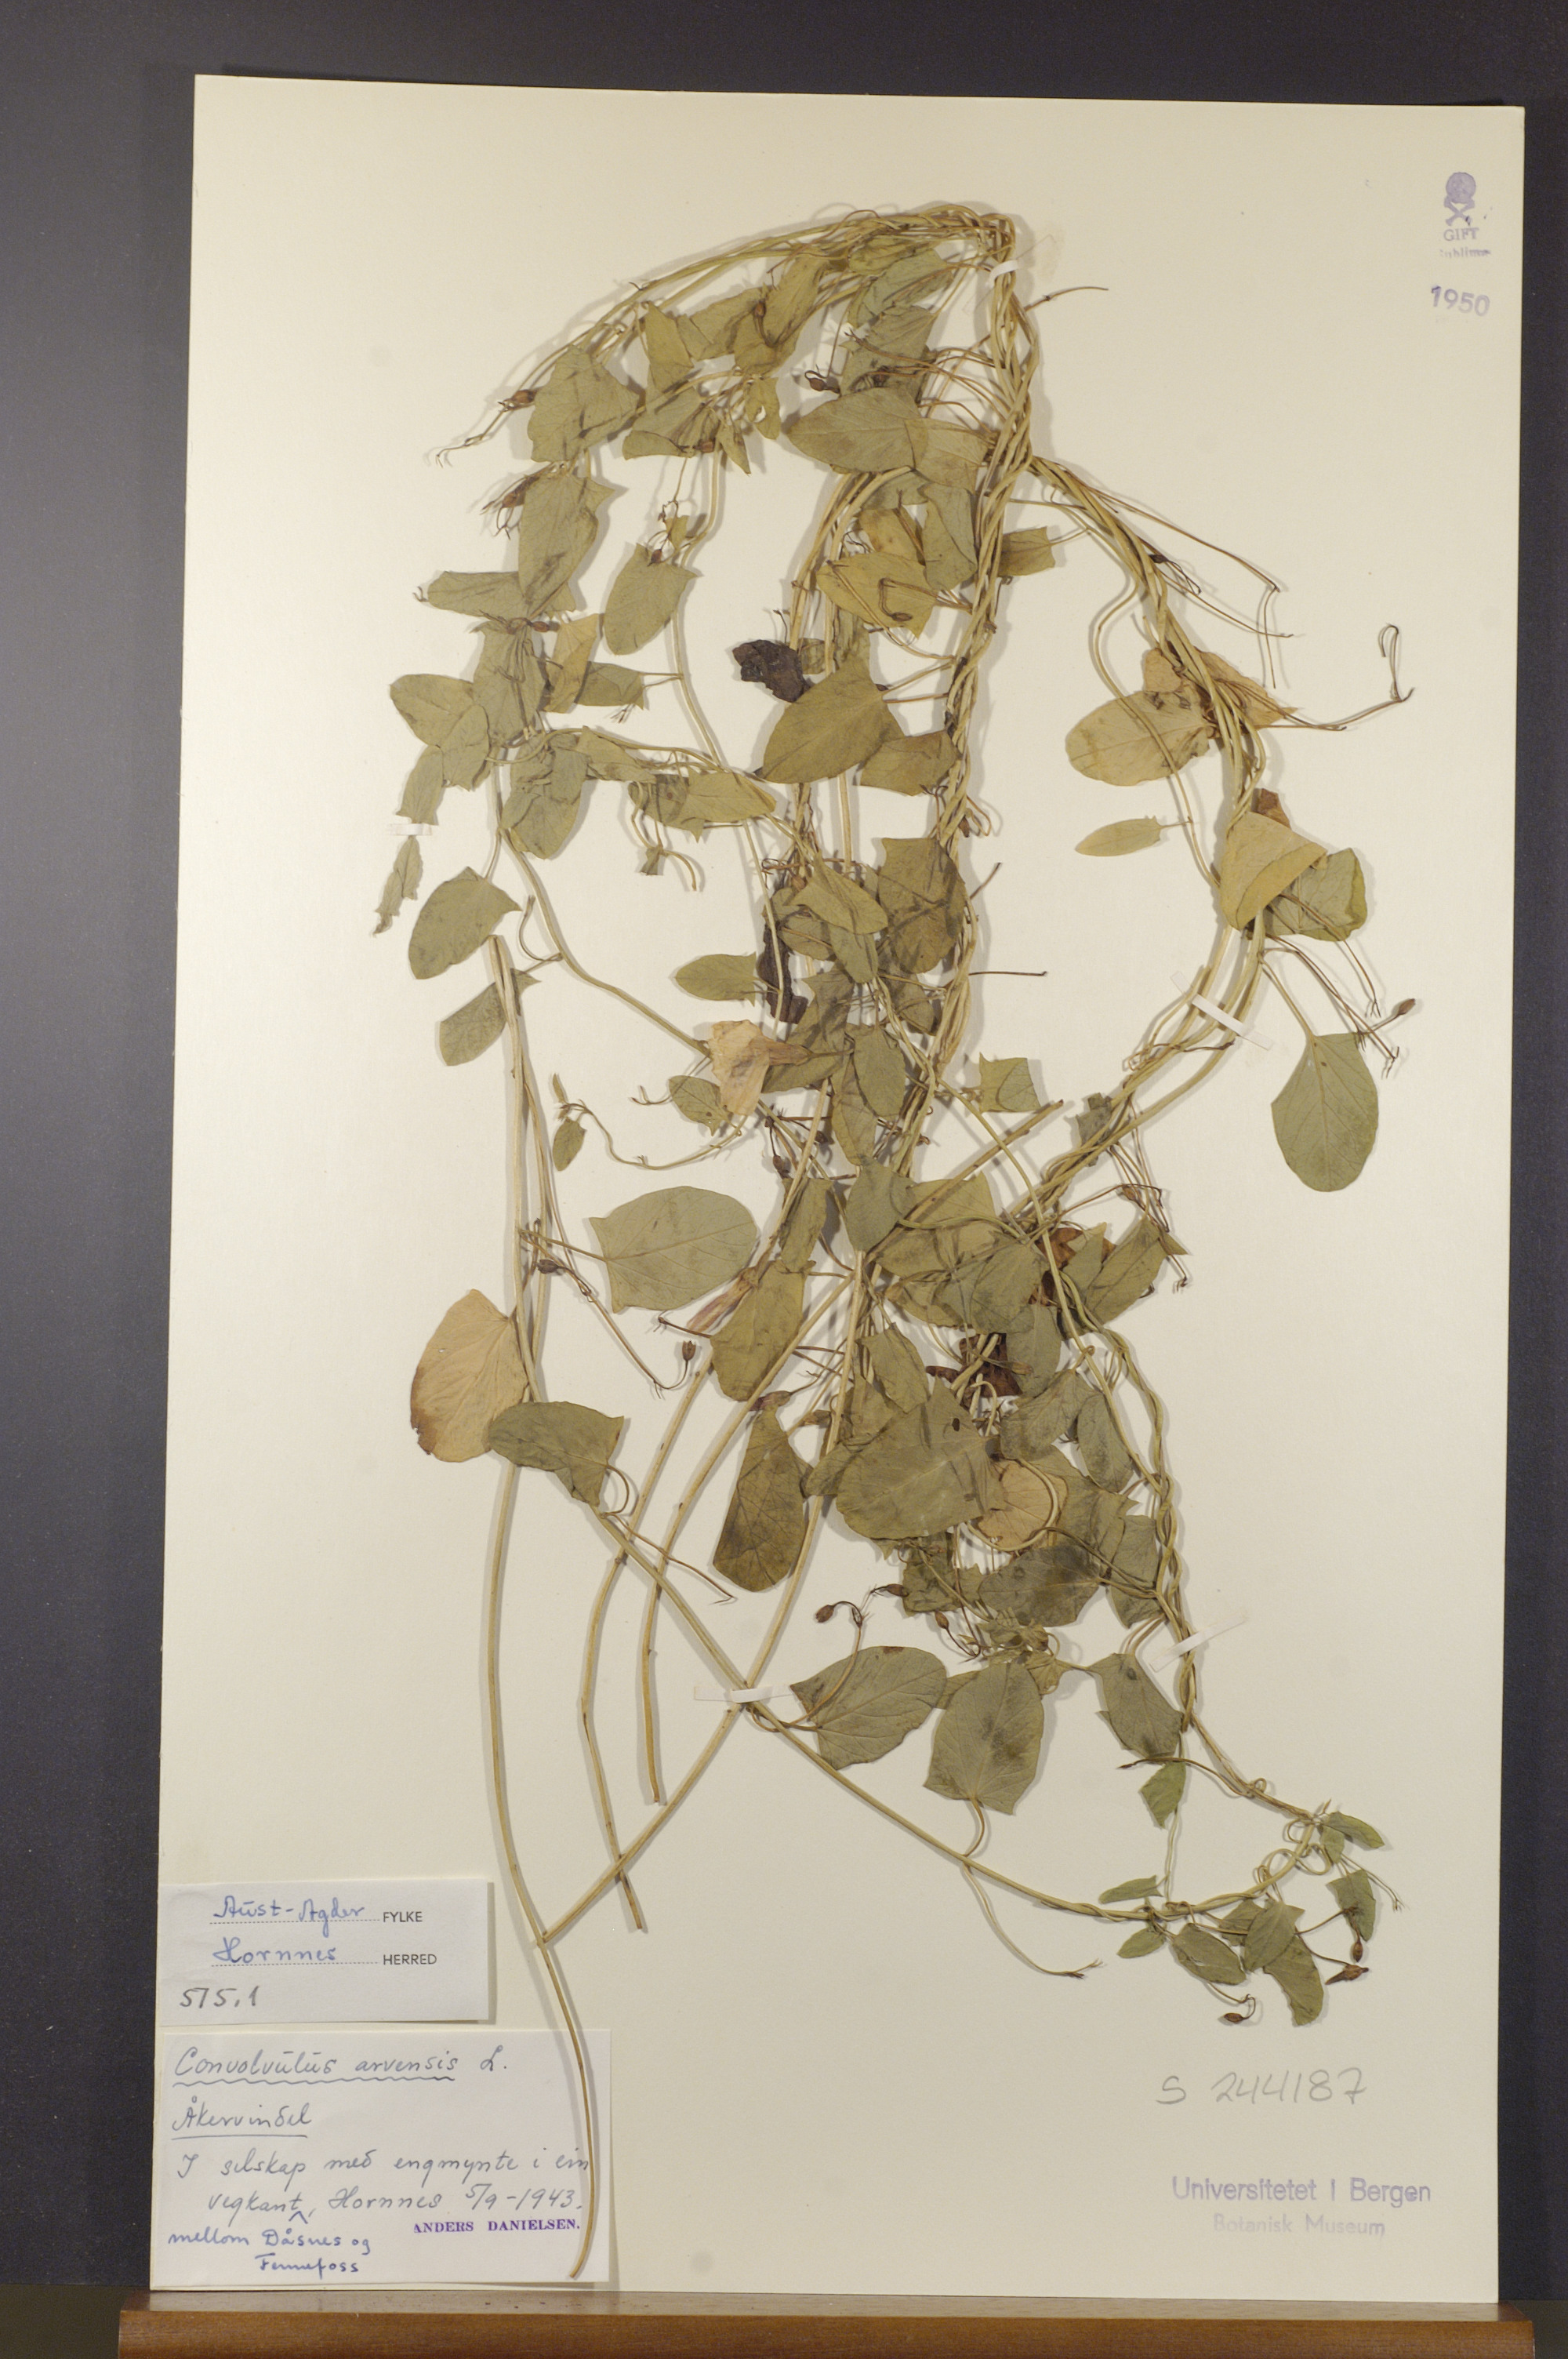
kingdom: Plantae
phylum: Tracheophyta
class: Magnoliopsida
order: Solanales
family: Convolvulaceae
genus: Convolvulus
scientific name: Convolvulus arvensis
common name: Field bindweed
